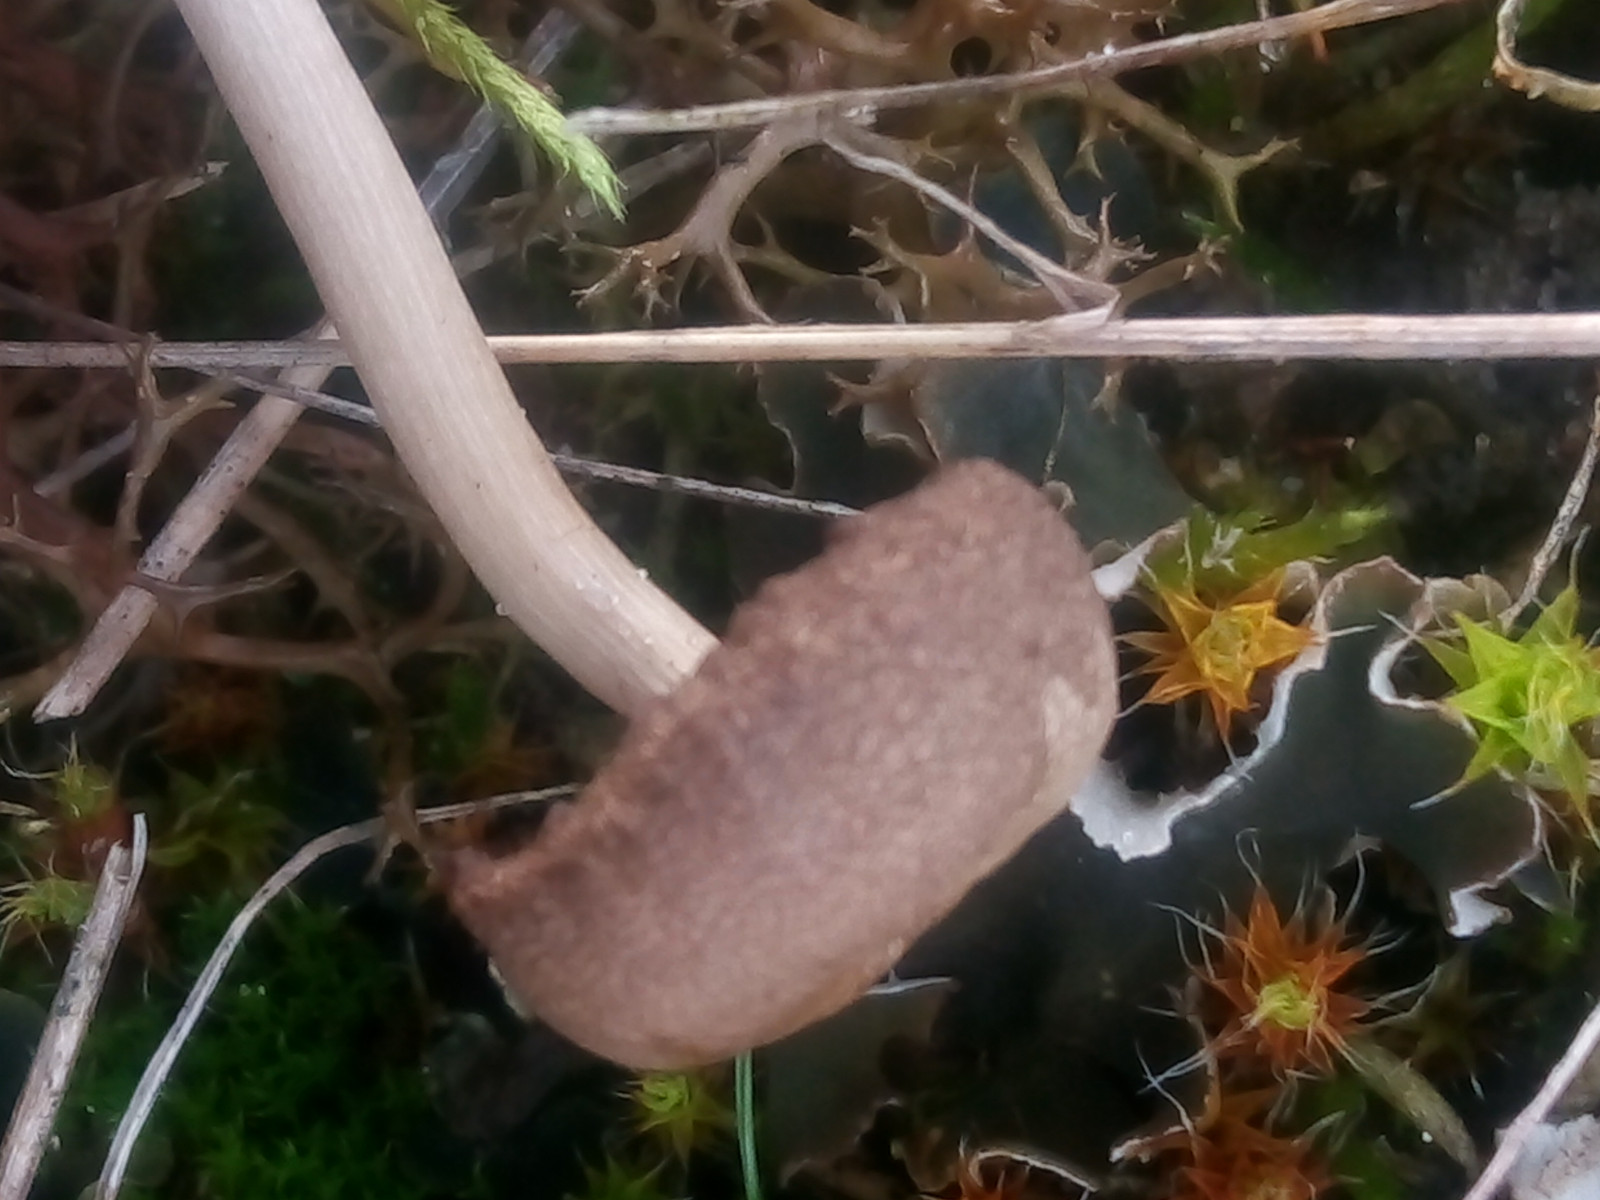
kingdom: Fungi
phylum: Basidiomycota
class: Agaricomycetes
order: Agaricales
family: Tricholomataceae
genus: Gamundia
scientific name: Gamundia xerophila
